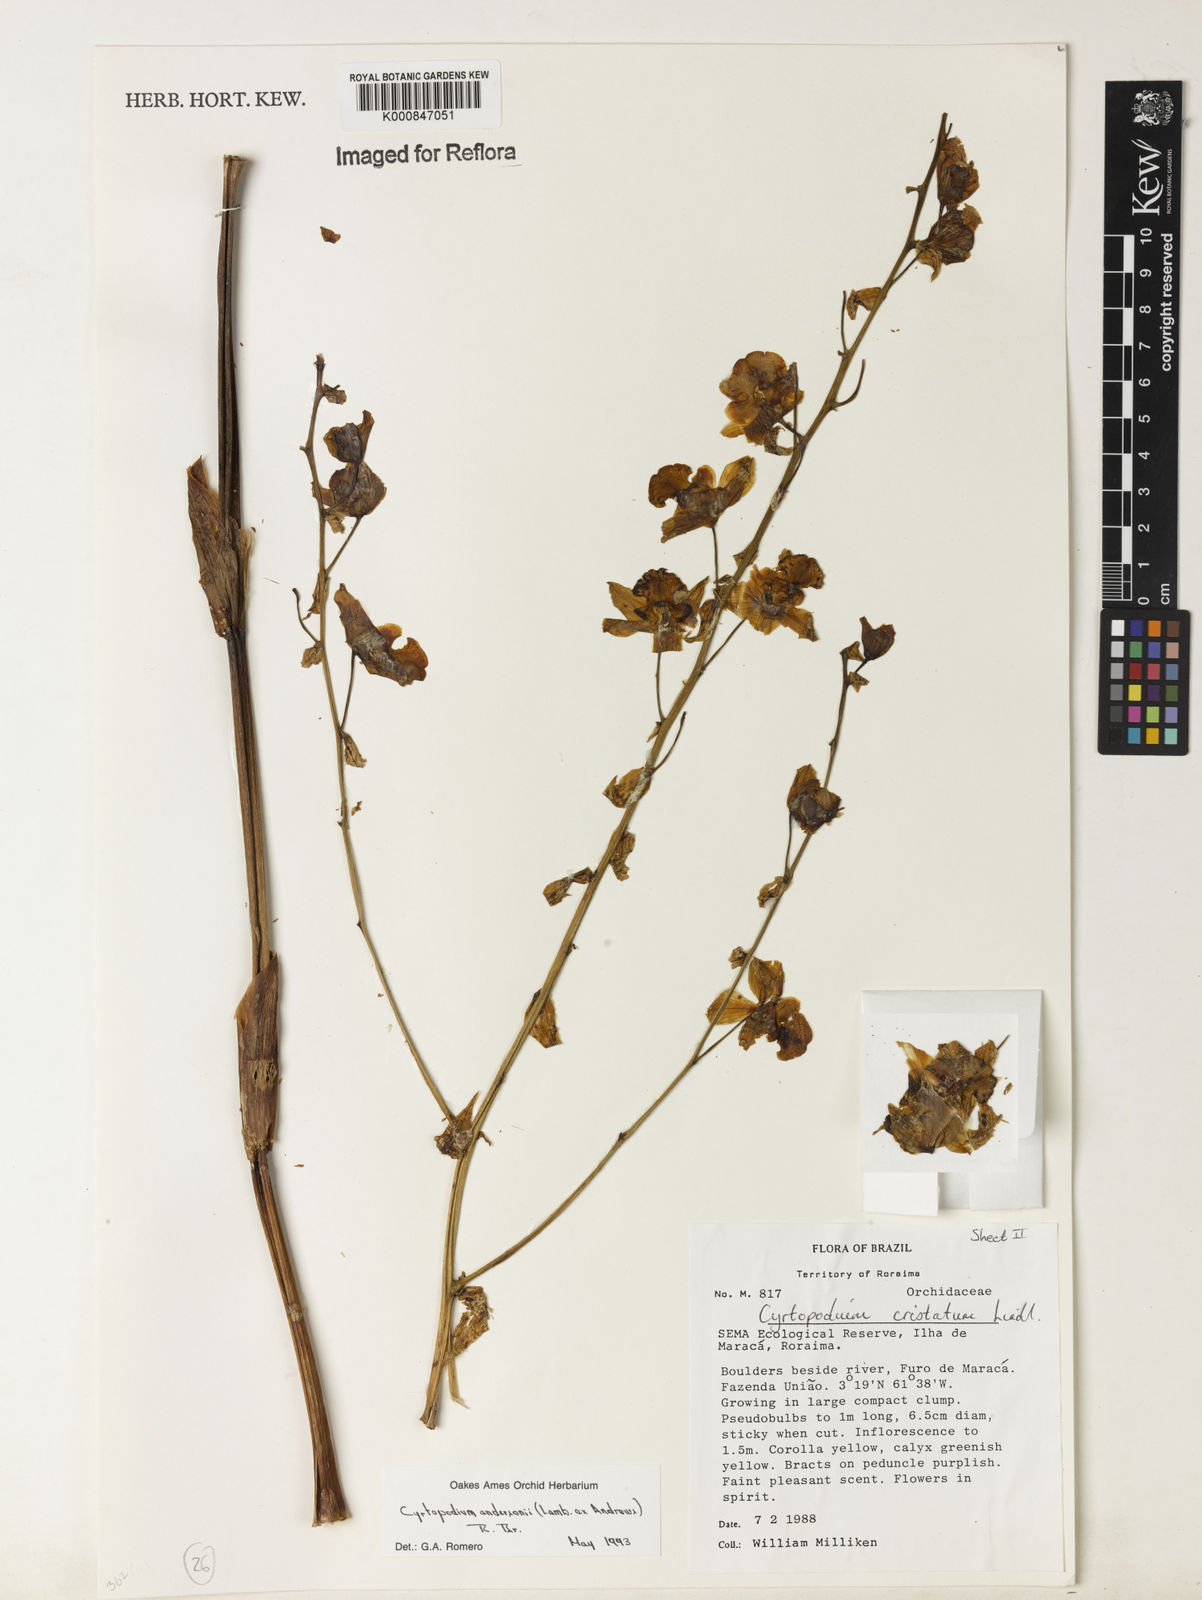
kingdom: Plantae
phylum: Tracheophyta
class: Liliopsida
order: Asparagales
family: Orchidaceae
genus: Cyrtopodium
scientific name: Cyrtopodium andersonii
